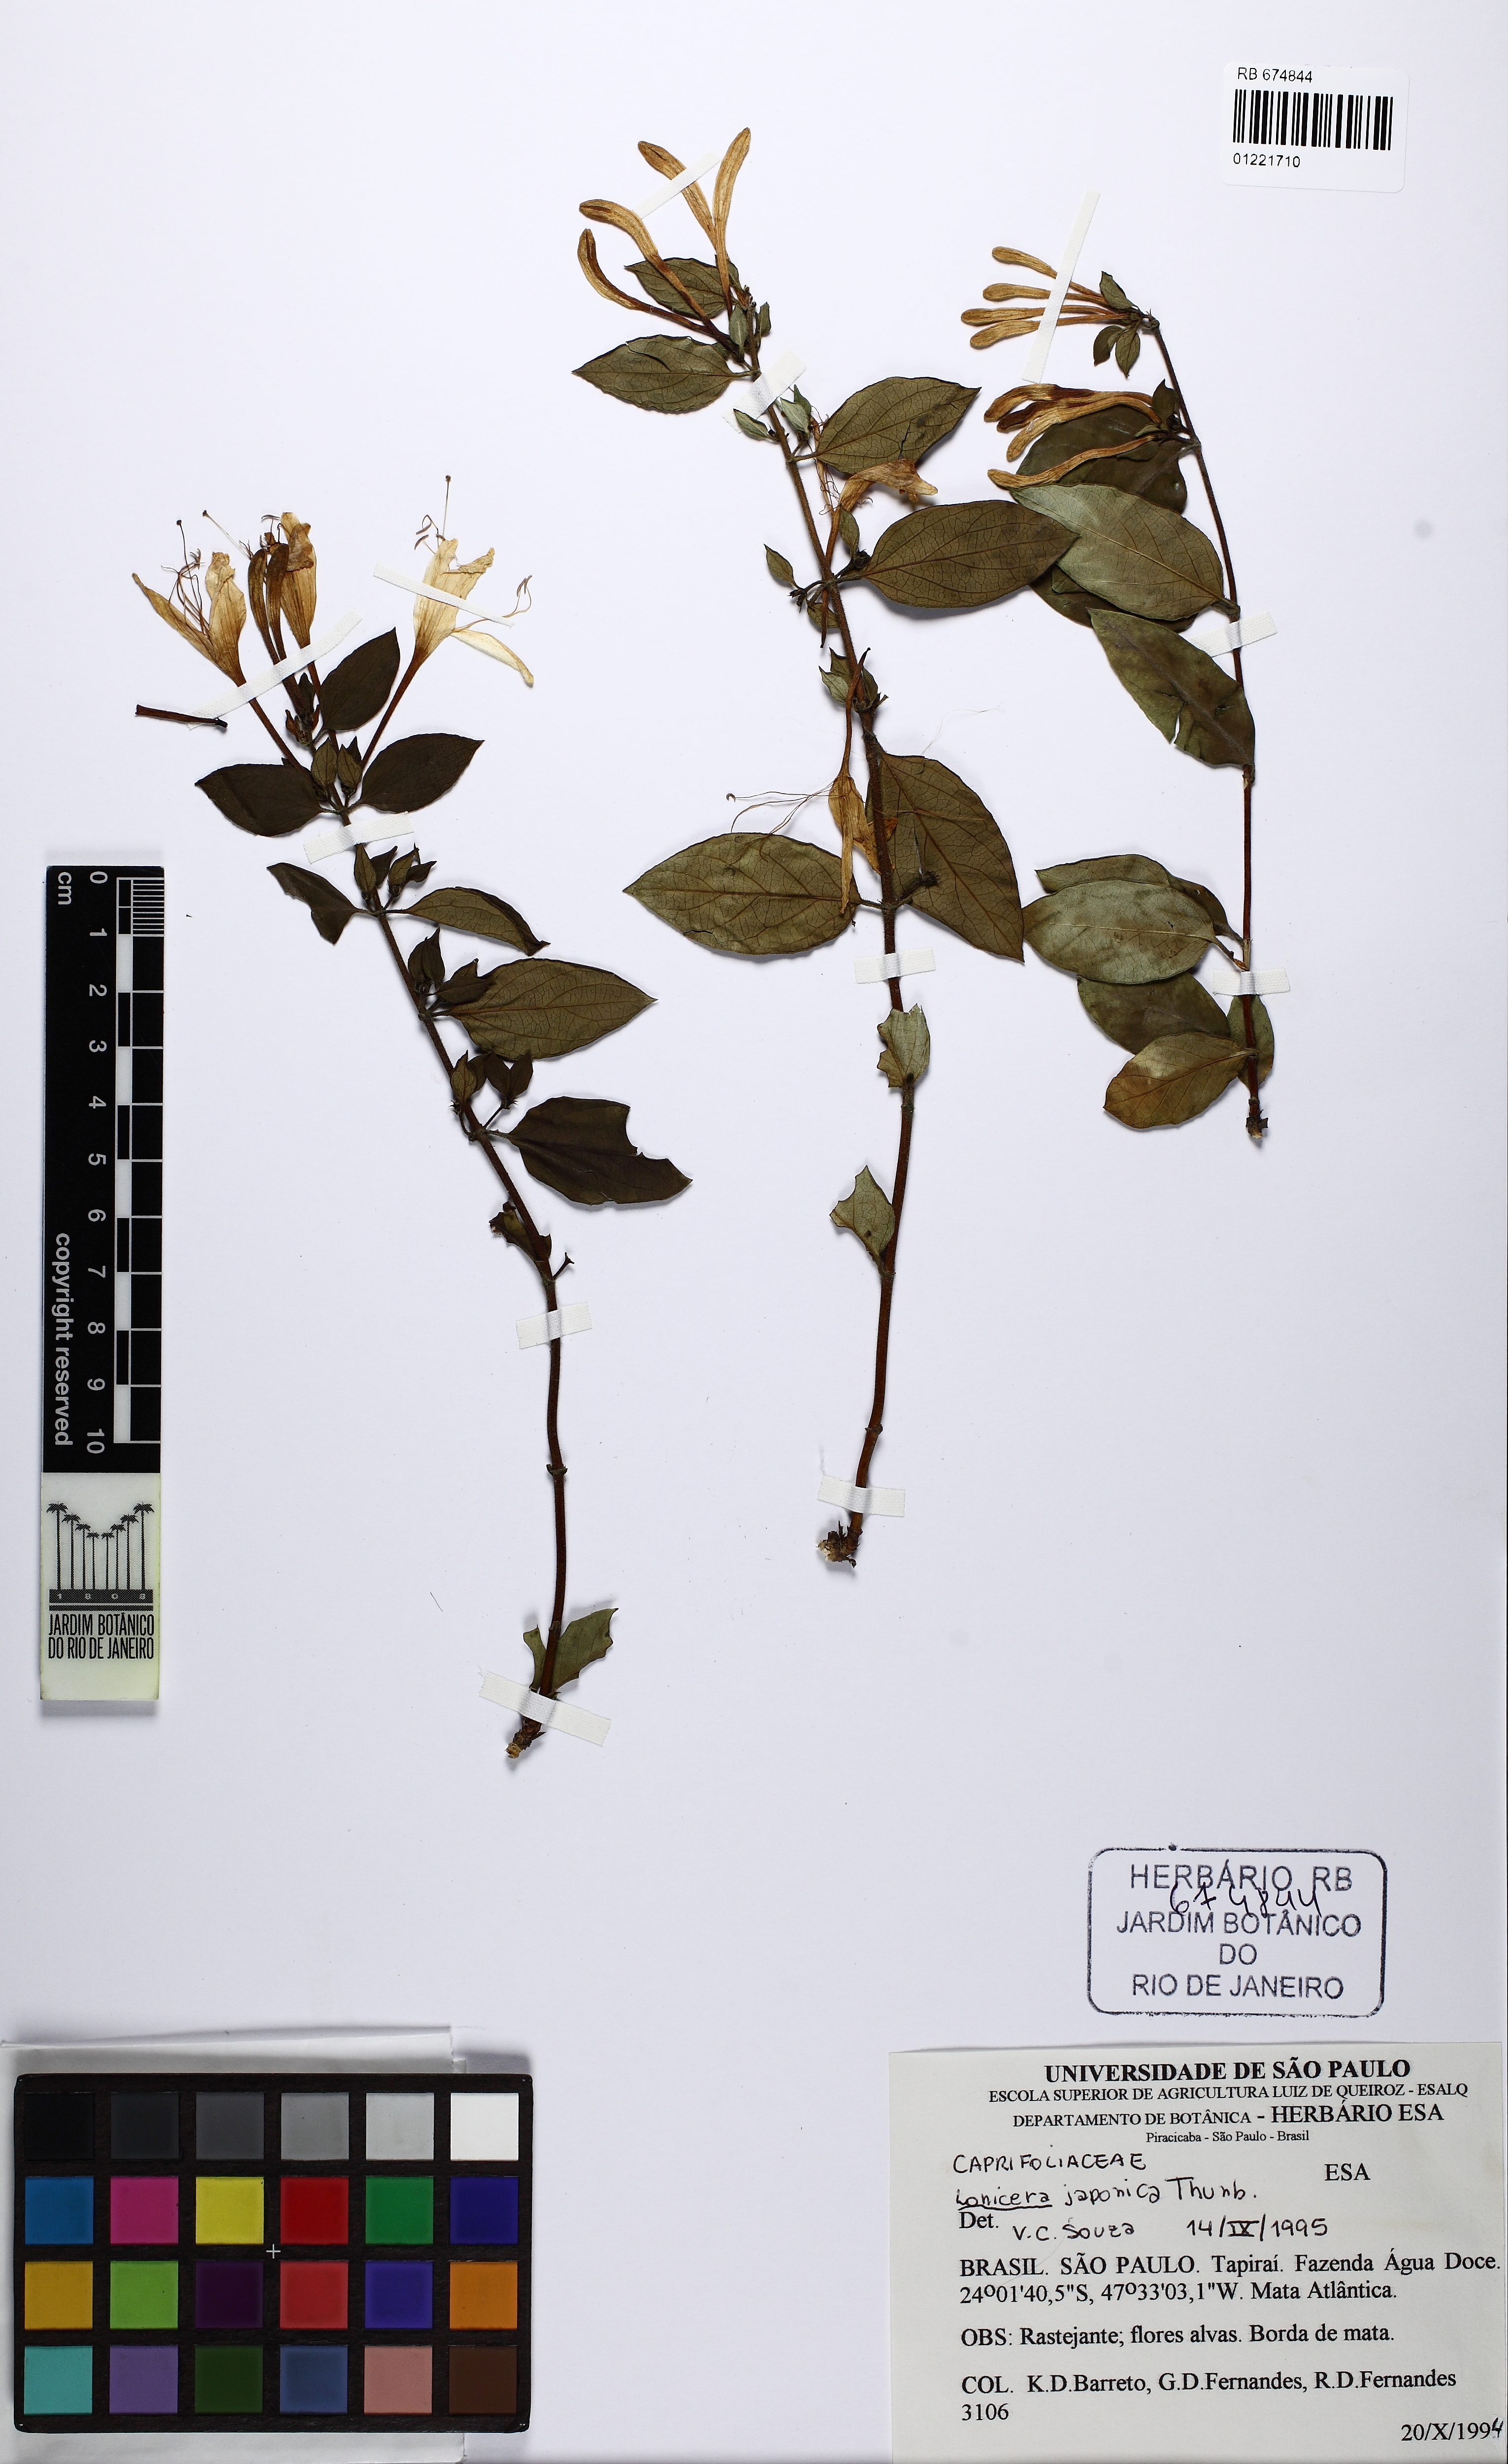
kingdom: Plantae
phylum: Tracheophyta
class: Magnoliopsida
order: Dipsacales
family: Caprifoliaceae
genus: Lonicera
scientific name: Lonicera japonica
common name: Japanese honeysuckle
